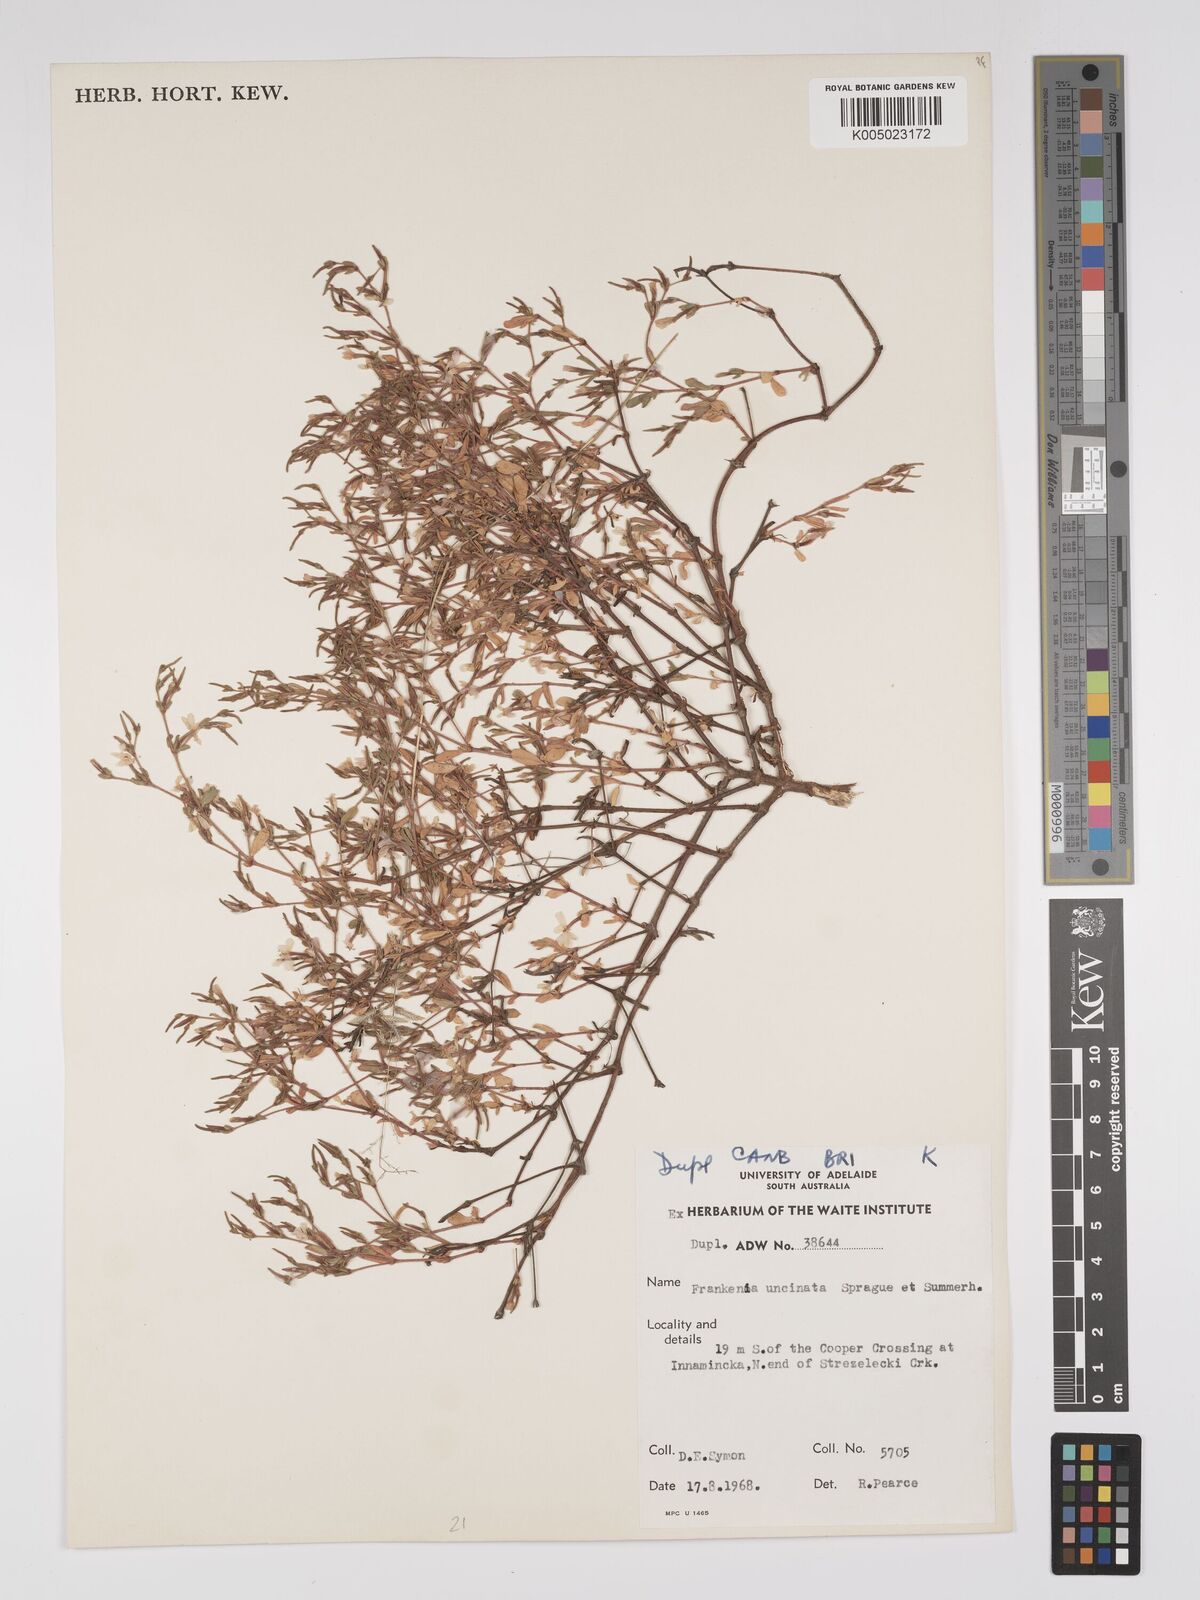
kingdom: Plantae
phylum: Tracheophyta
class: Magnoliopsida
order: Caryophyllales
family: Frankeniaceae
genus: Frankenia
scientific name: Frankenia uncinata
